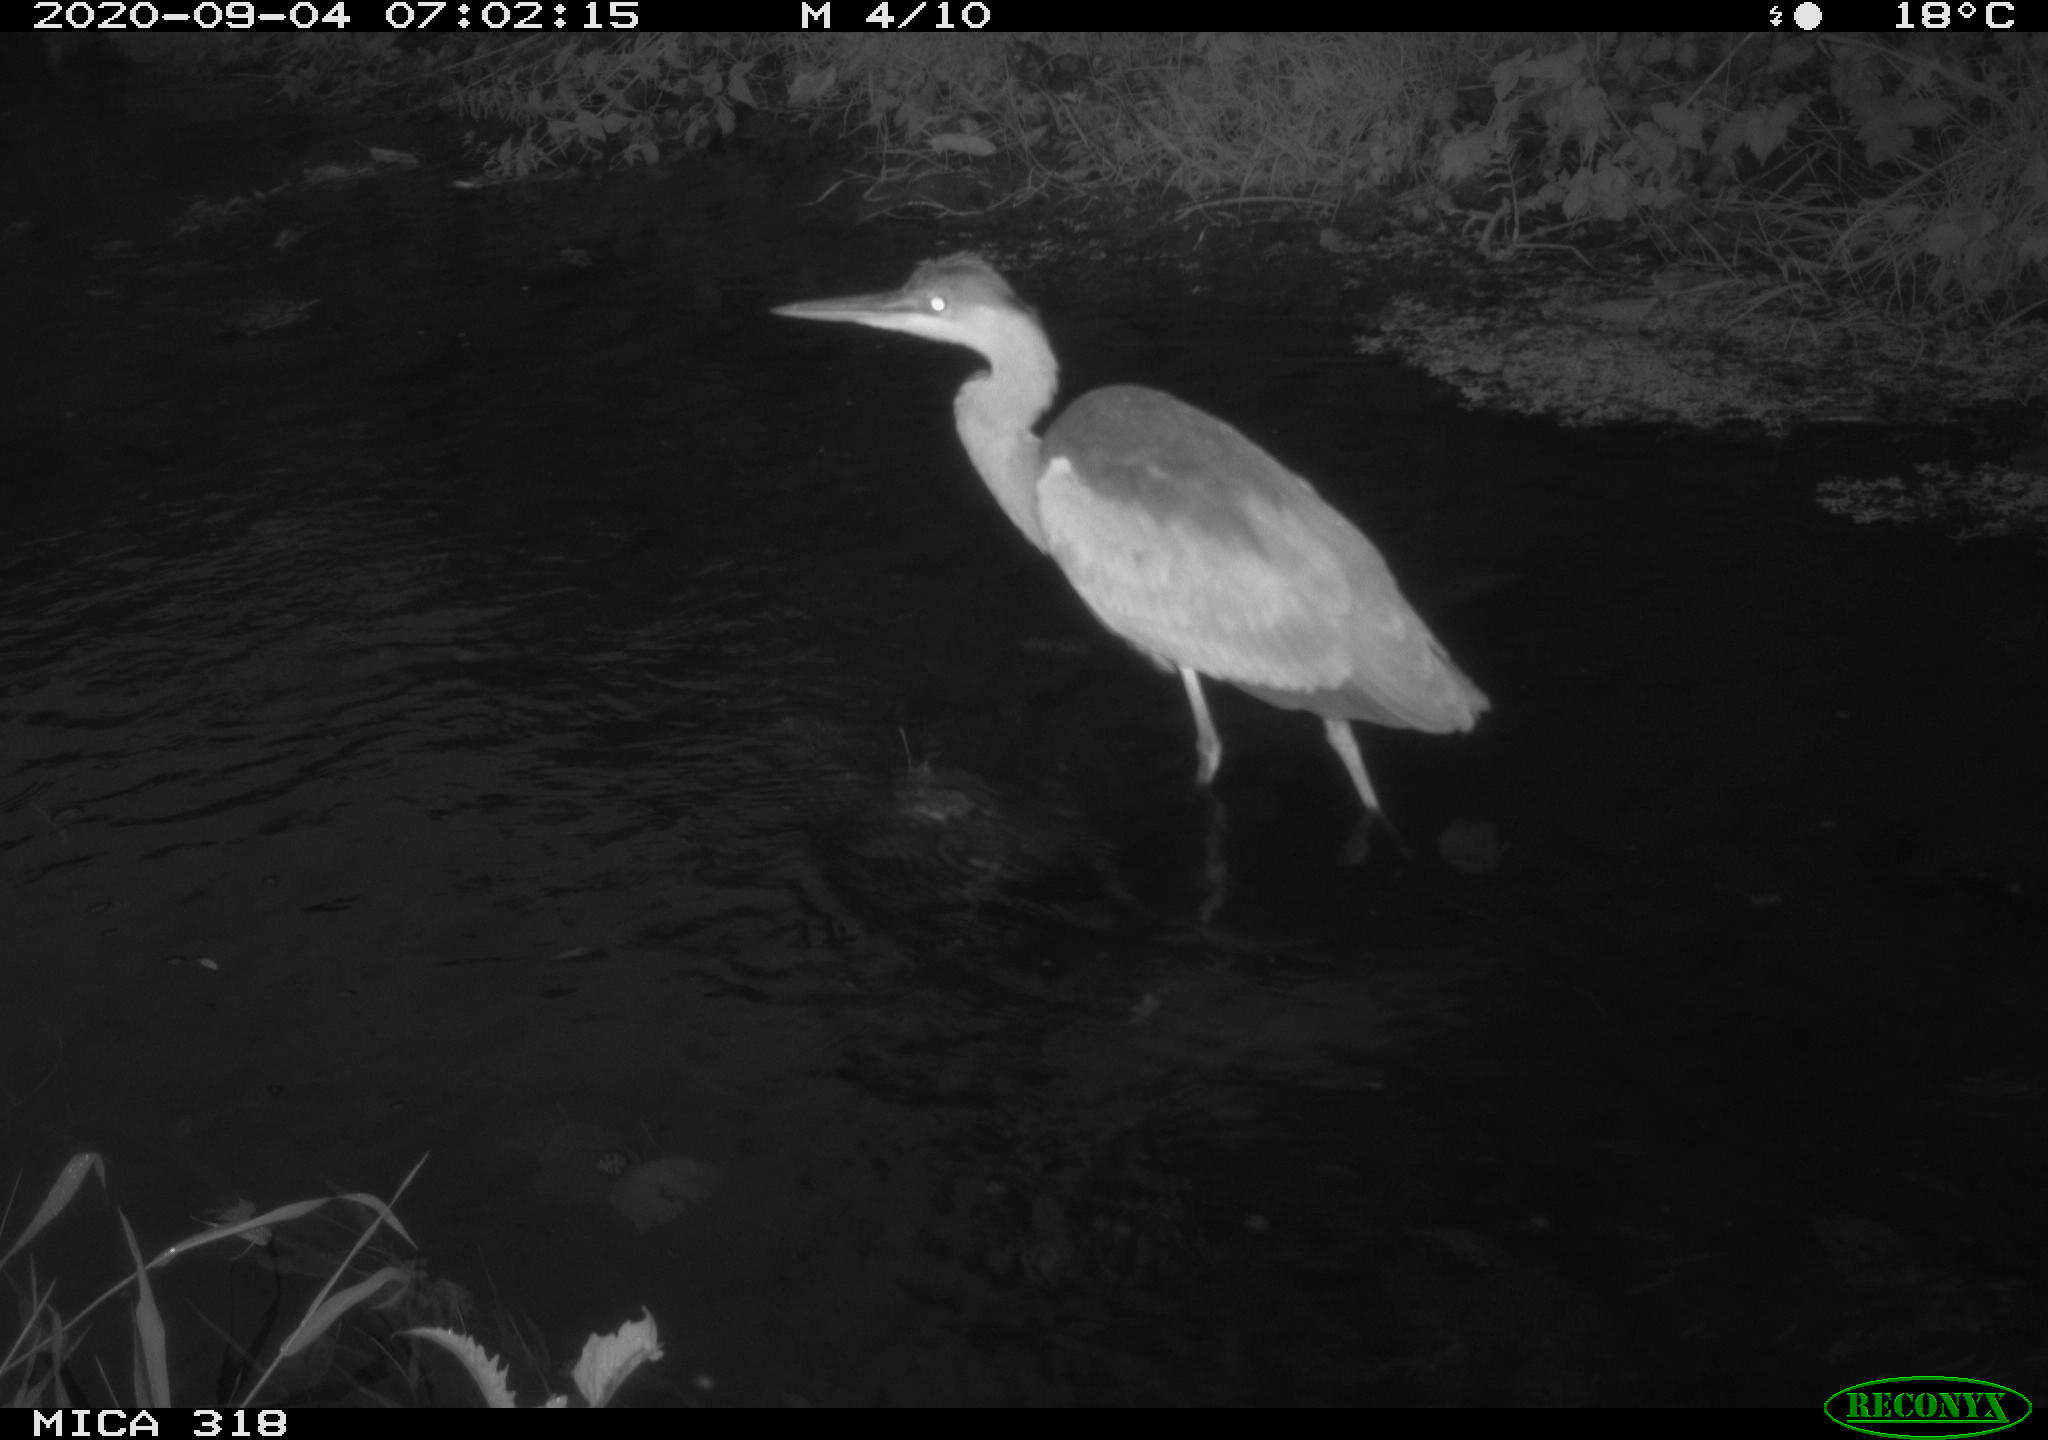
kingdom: Animalia
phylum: Chordata
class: Aves
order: Pelecaniformes
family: Ardeidae
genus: Ardea
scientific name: Ardea
